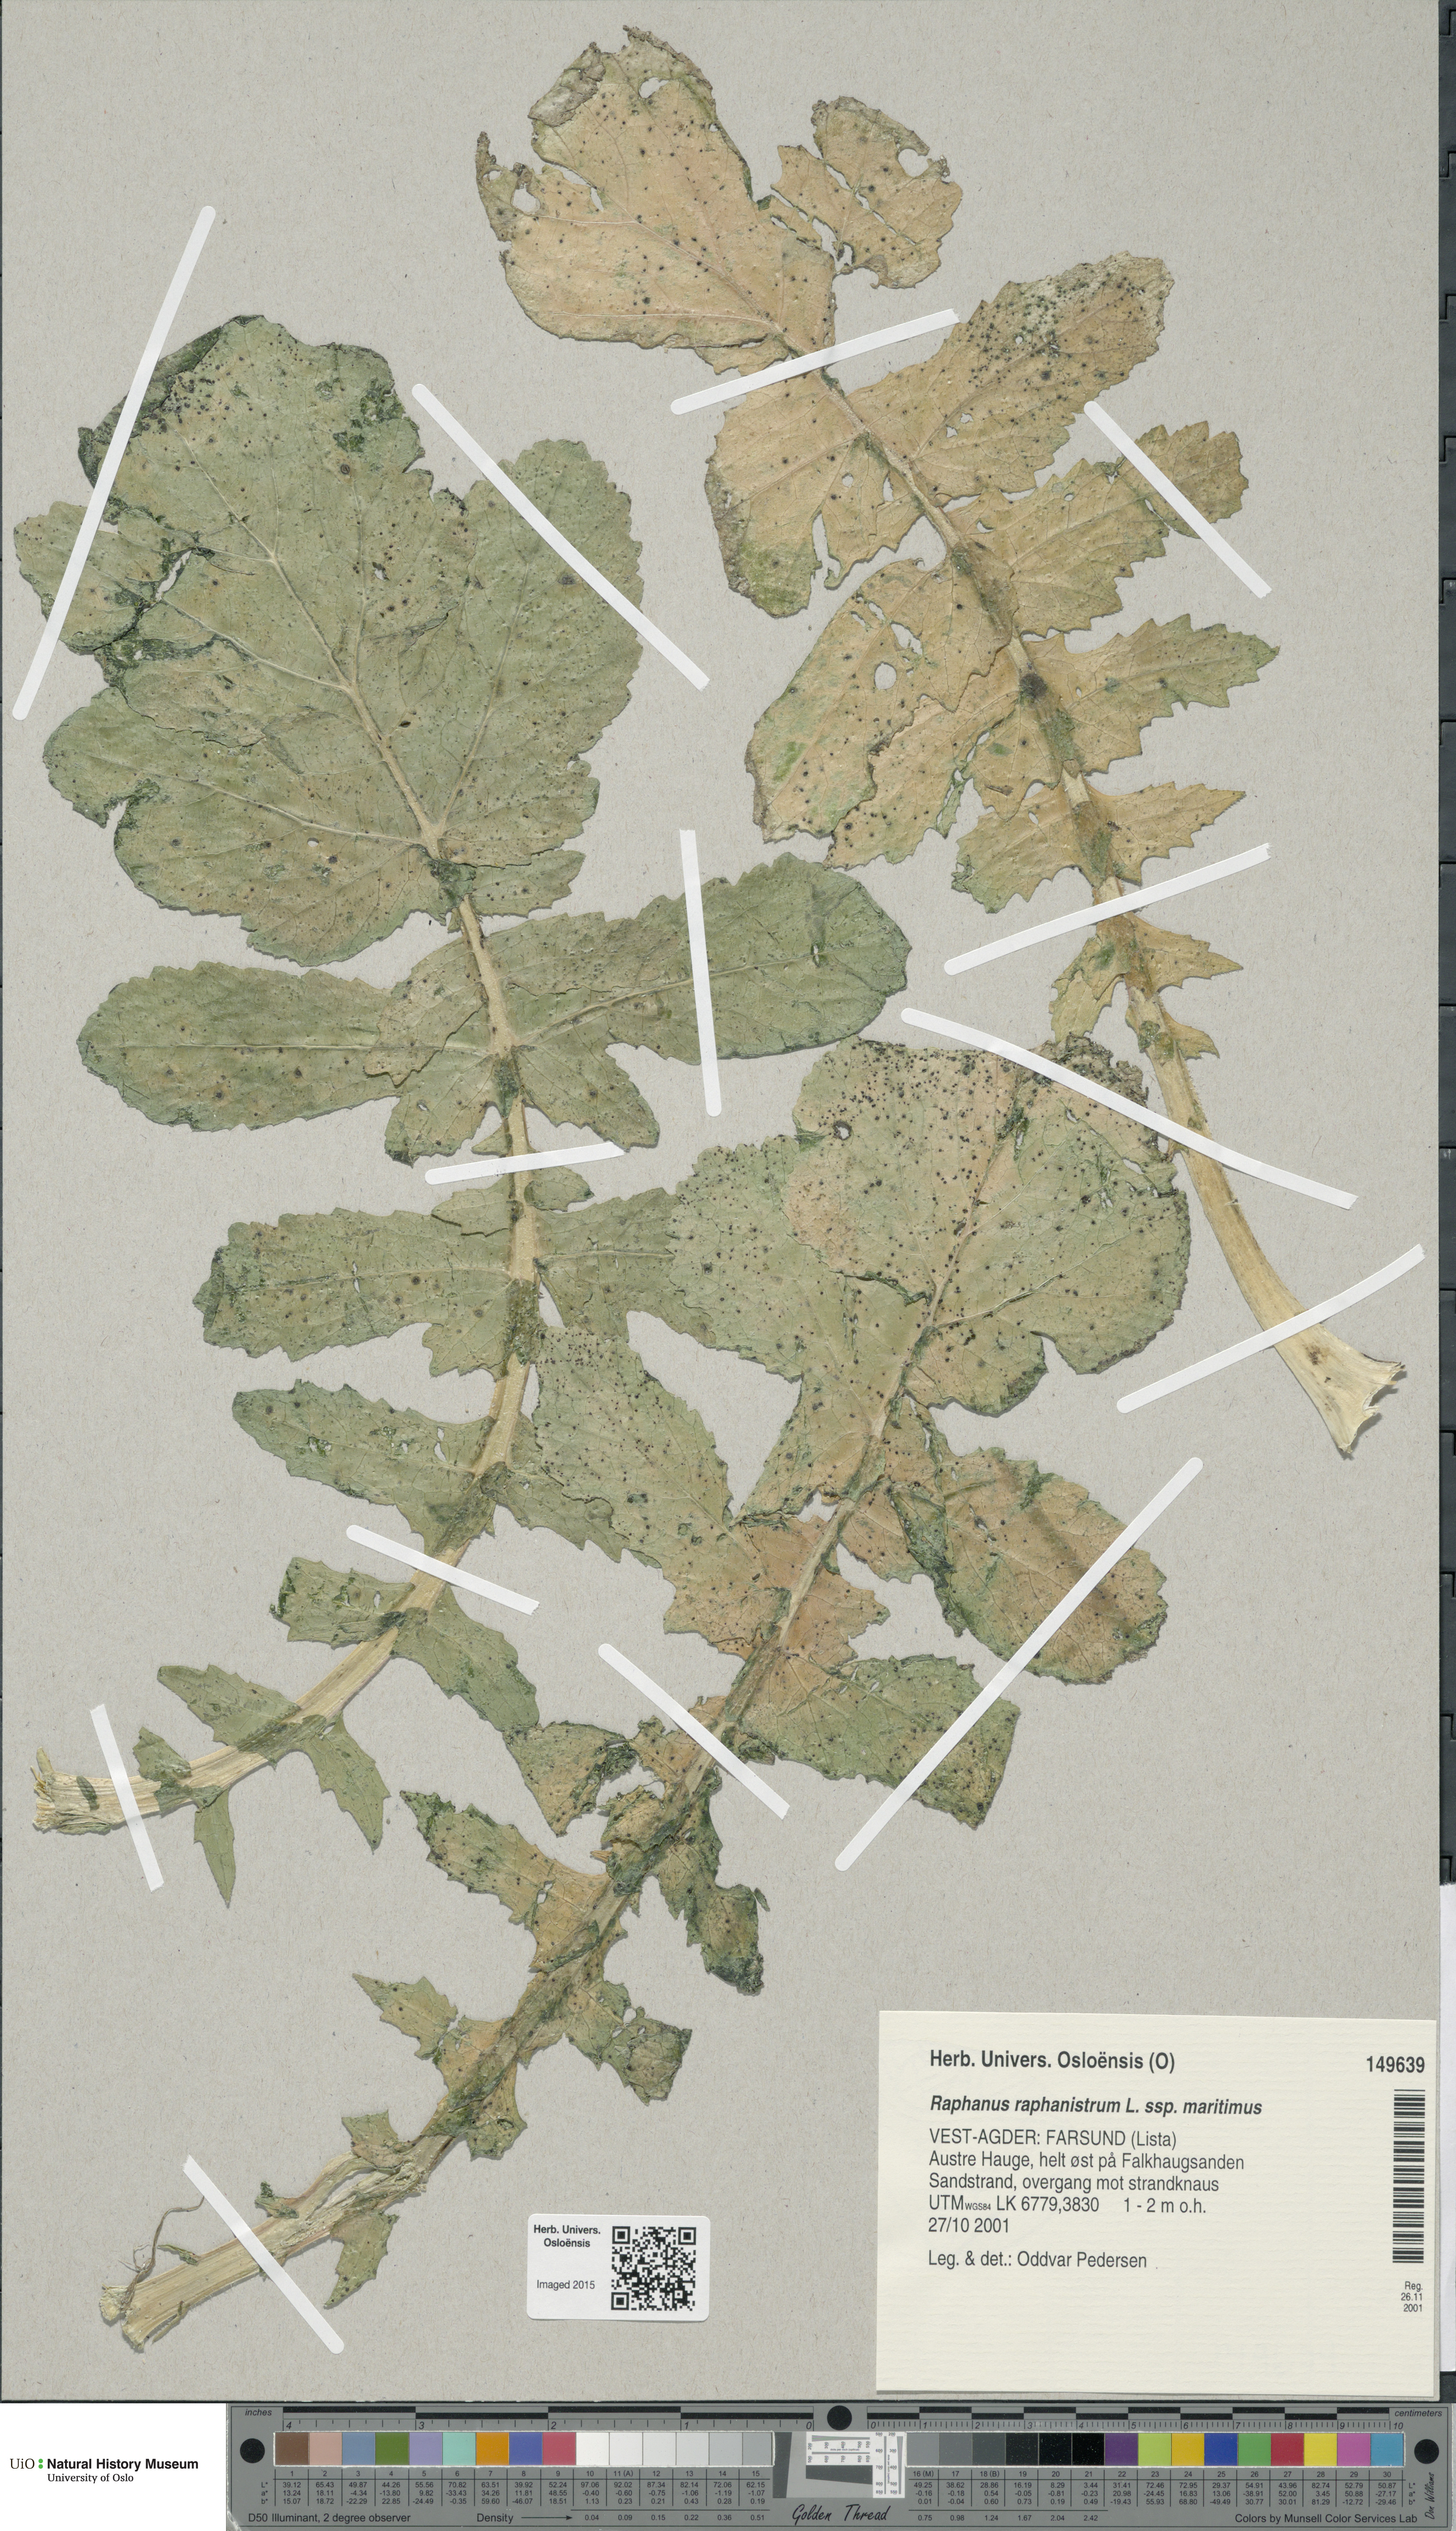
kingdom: Plantae
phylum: Tracheophyta
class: Magnoliopsida
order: Brassicales
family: Brassicaceae
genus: Raphanus
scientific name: Raphanus raphanistrum
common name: Wild radish
